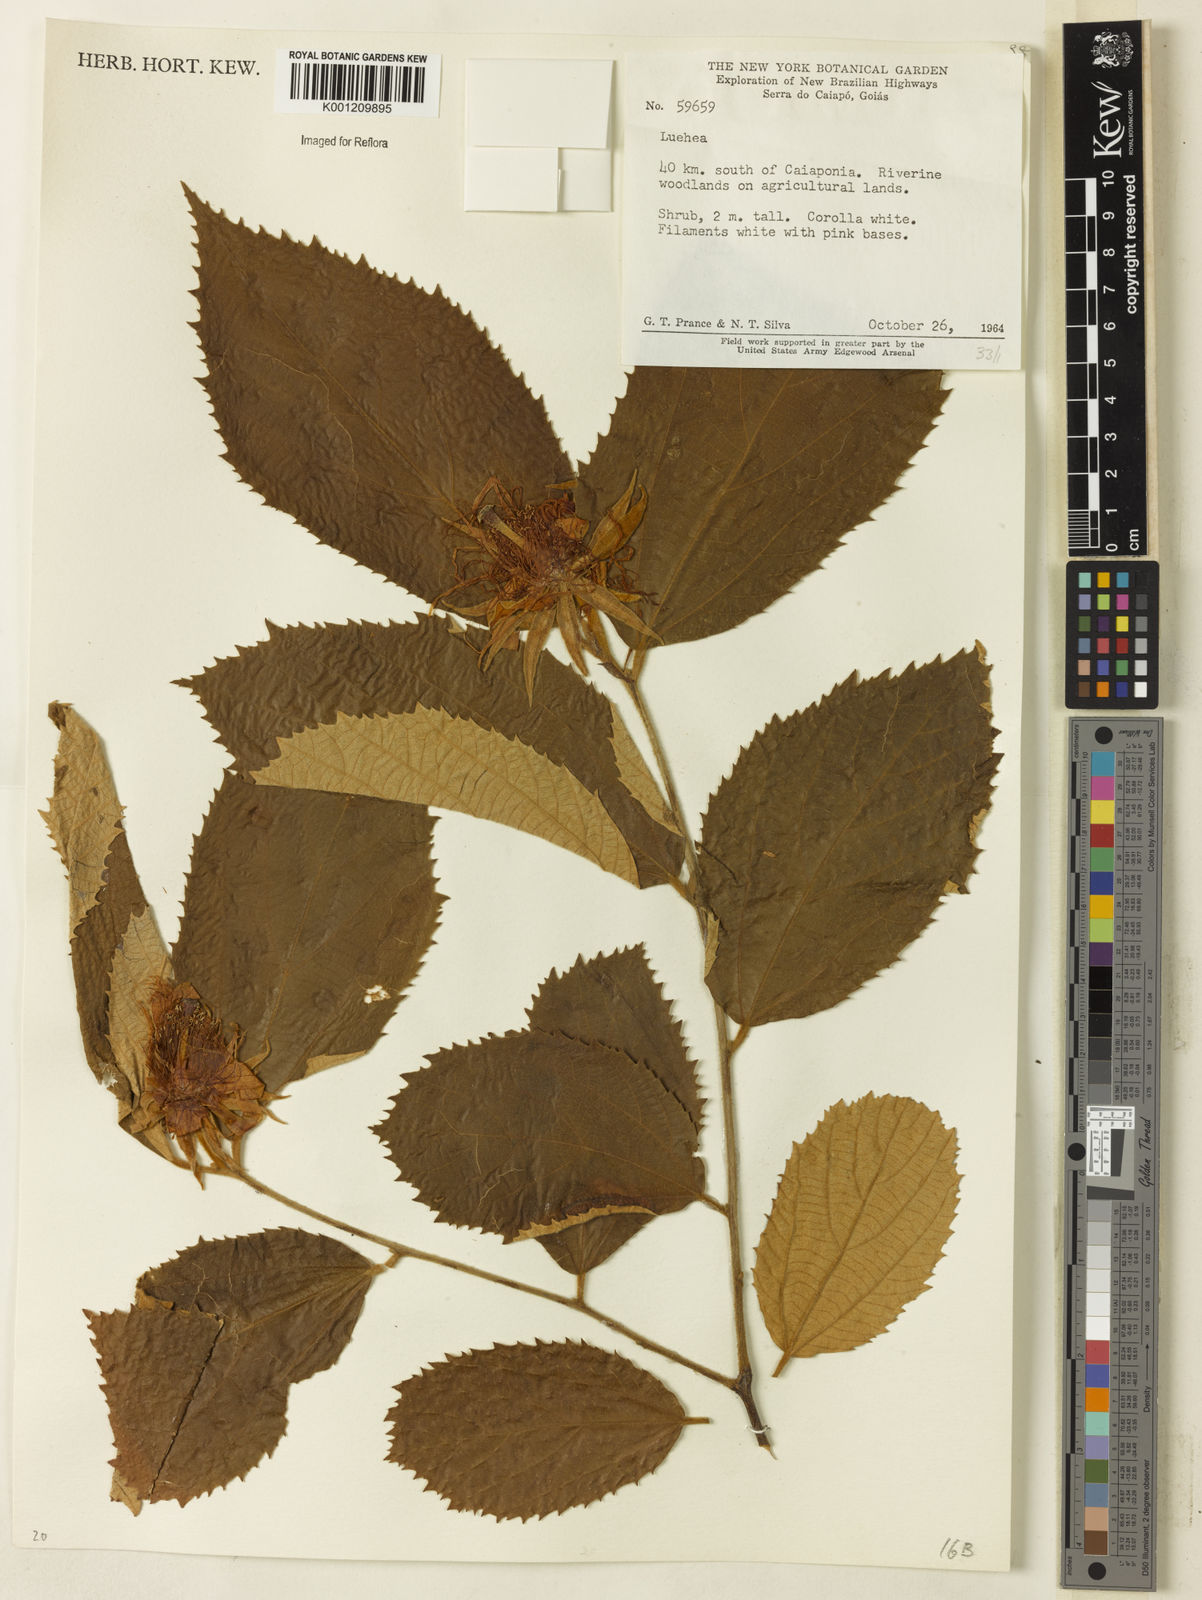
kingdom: Plantae
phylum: Tracheophyta
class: Magnoliopsida
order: Malvales
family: Malvaceae
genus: Luehea
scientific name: Luehea
